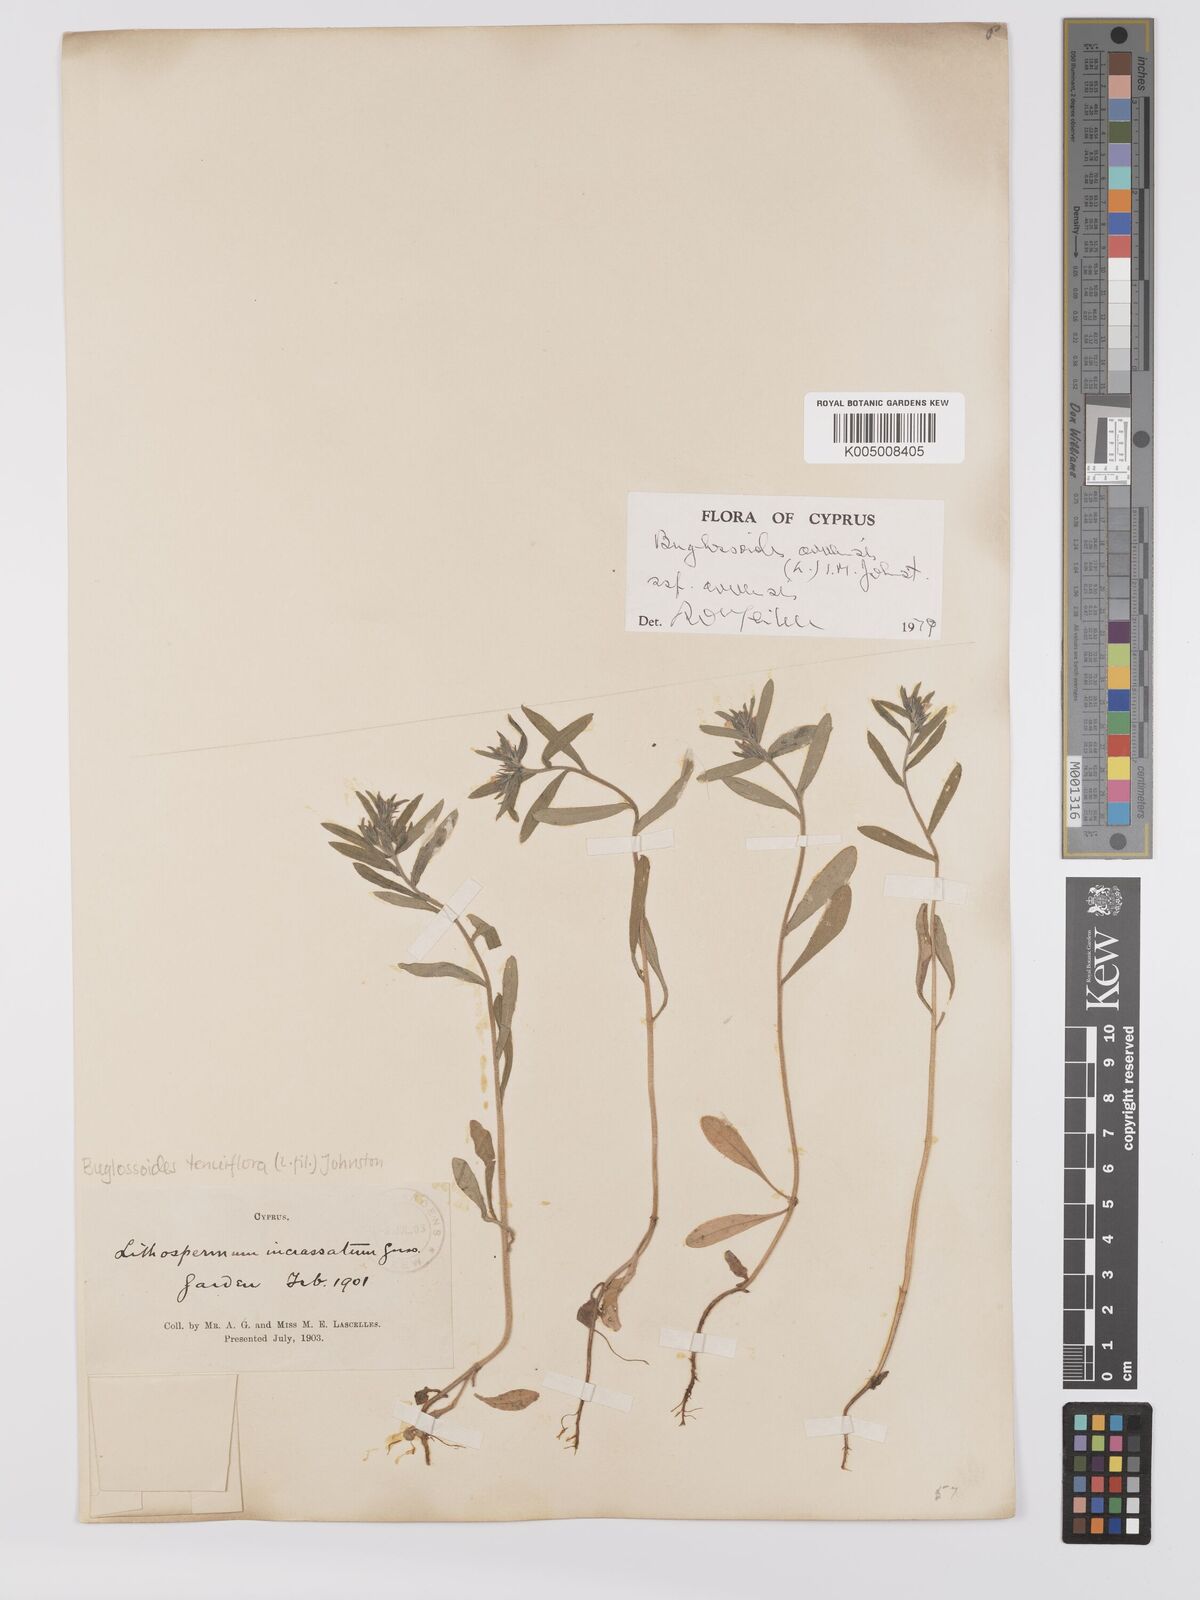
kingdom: Plantae
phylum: Tracheophyta
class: Magnoliopsida
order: Boraginales
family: Boraginaceae
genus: Buglossoides
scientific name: Buglossoides arvensis
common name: Corn gromwell
